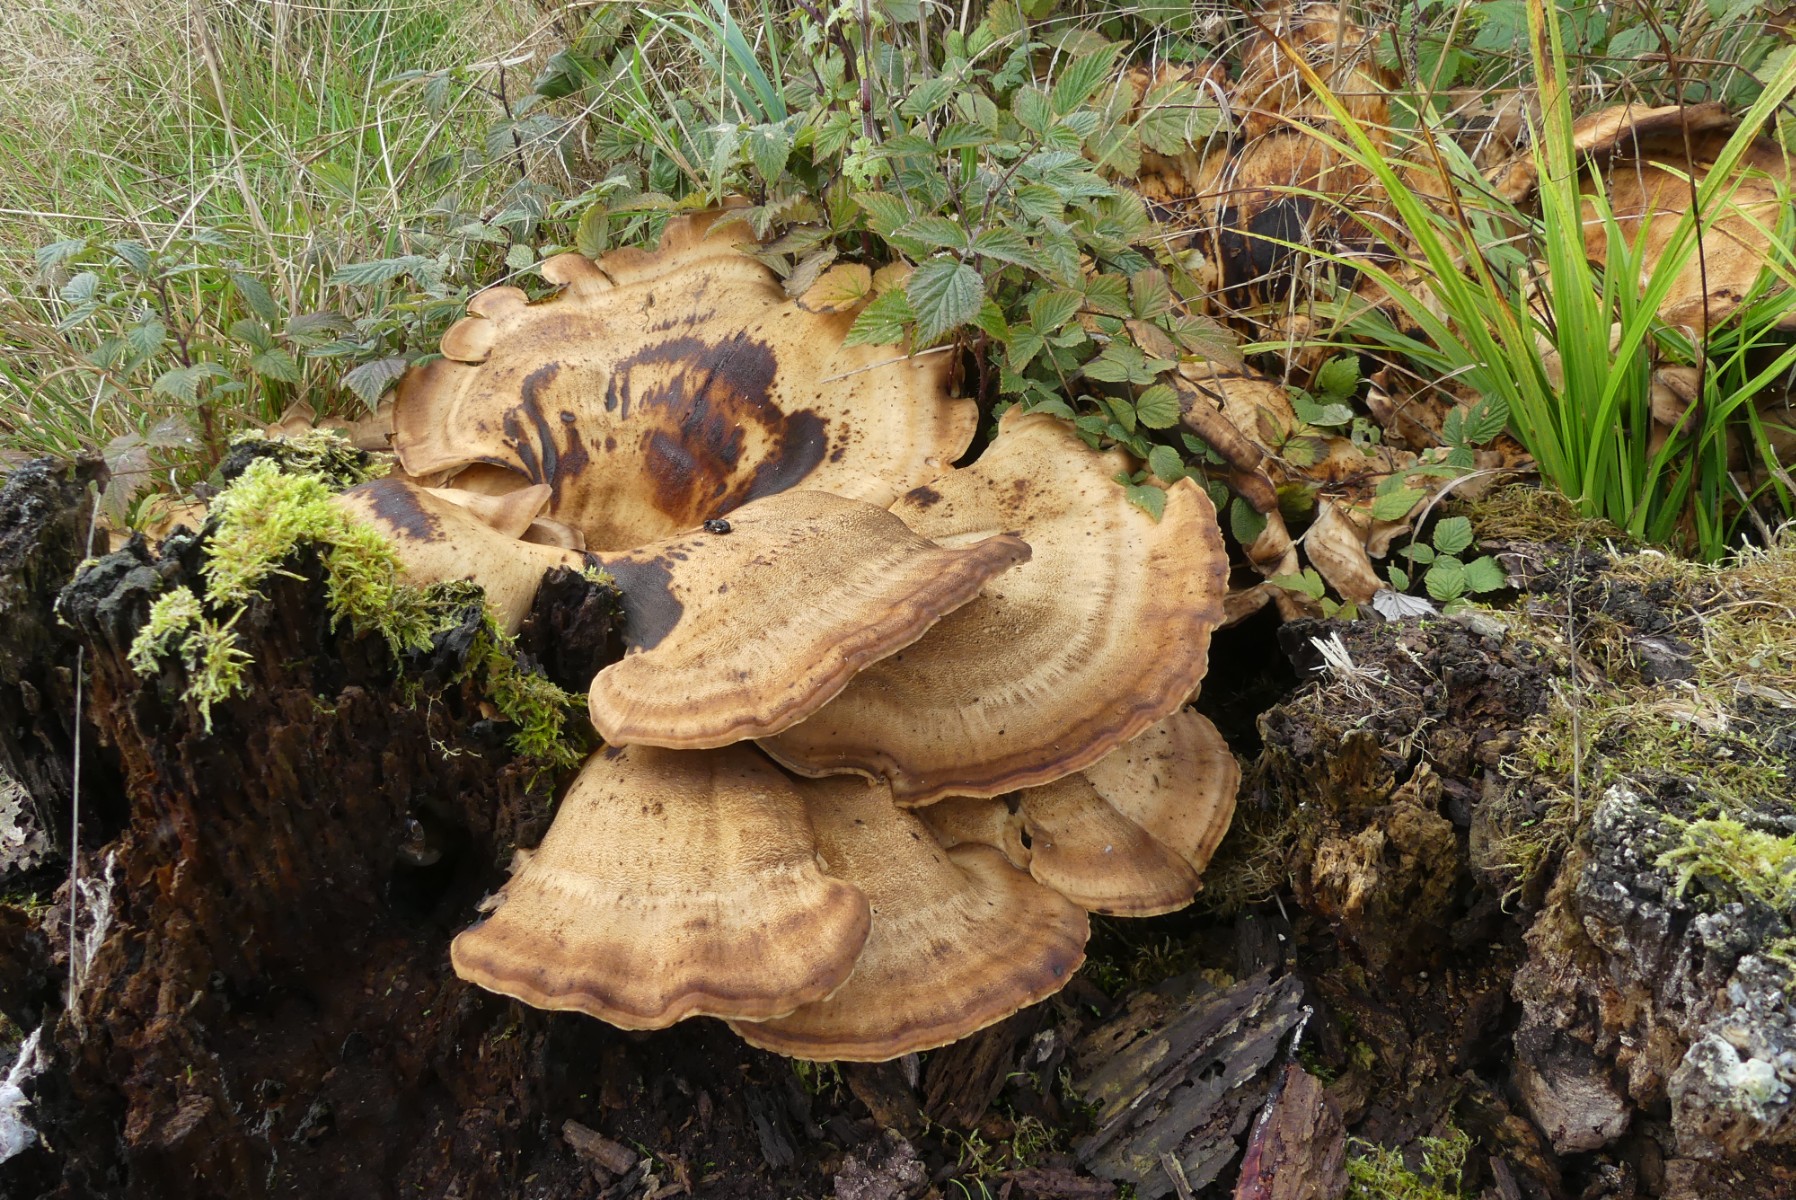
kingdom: Fungi
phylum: Basidiomycota
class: Agaricomycetes
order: Polyporales
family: Meripilaceae
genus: Meripilus
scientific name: Meripilus giganteus
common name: kæmpeporesvamp
